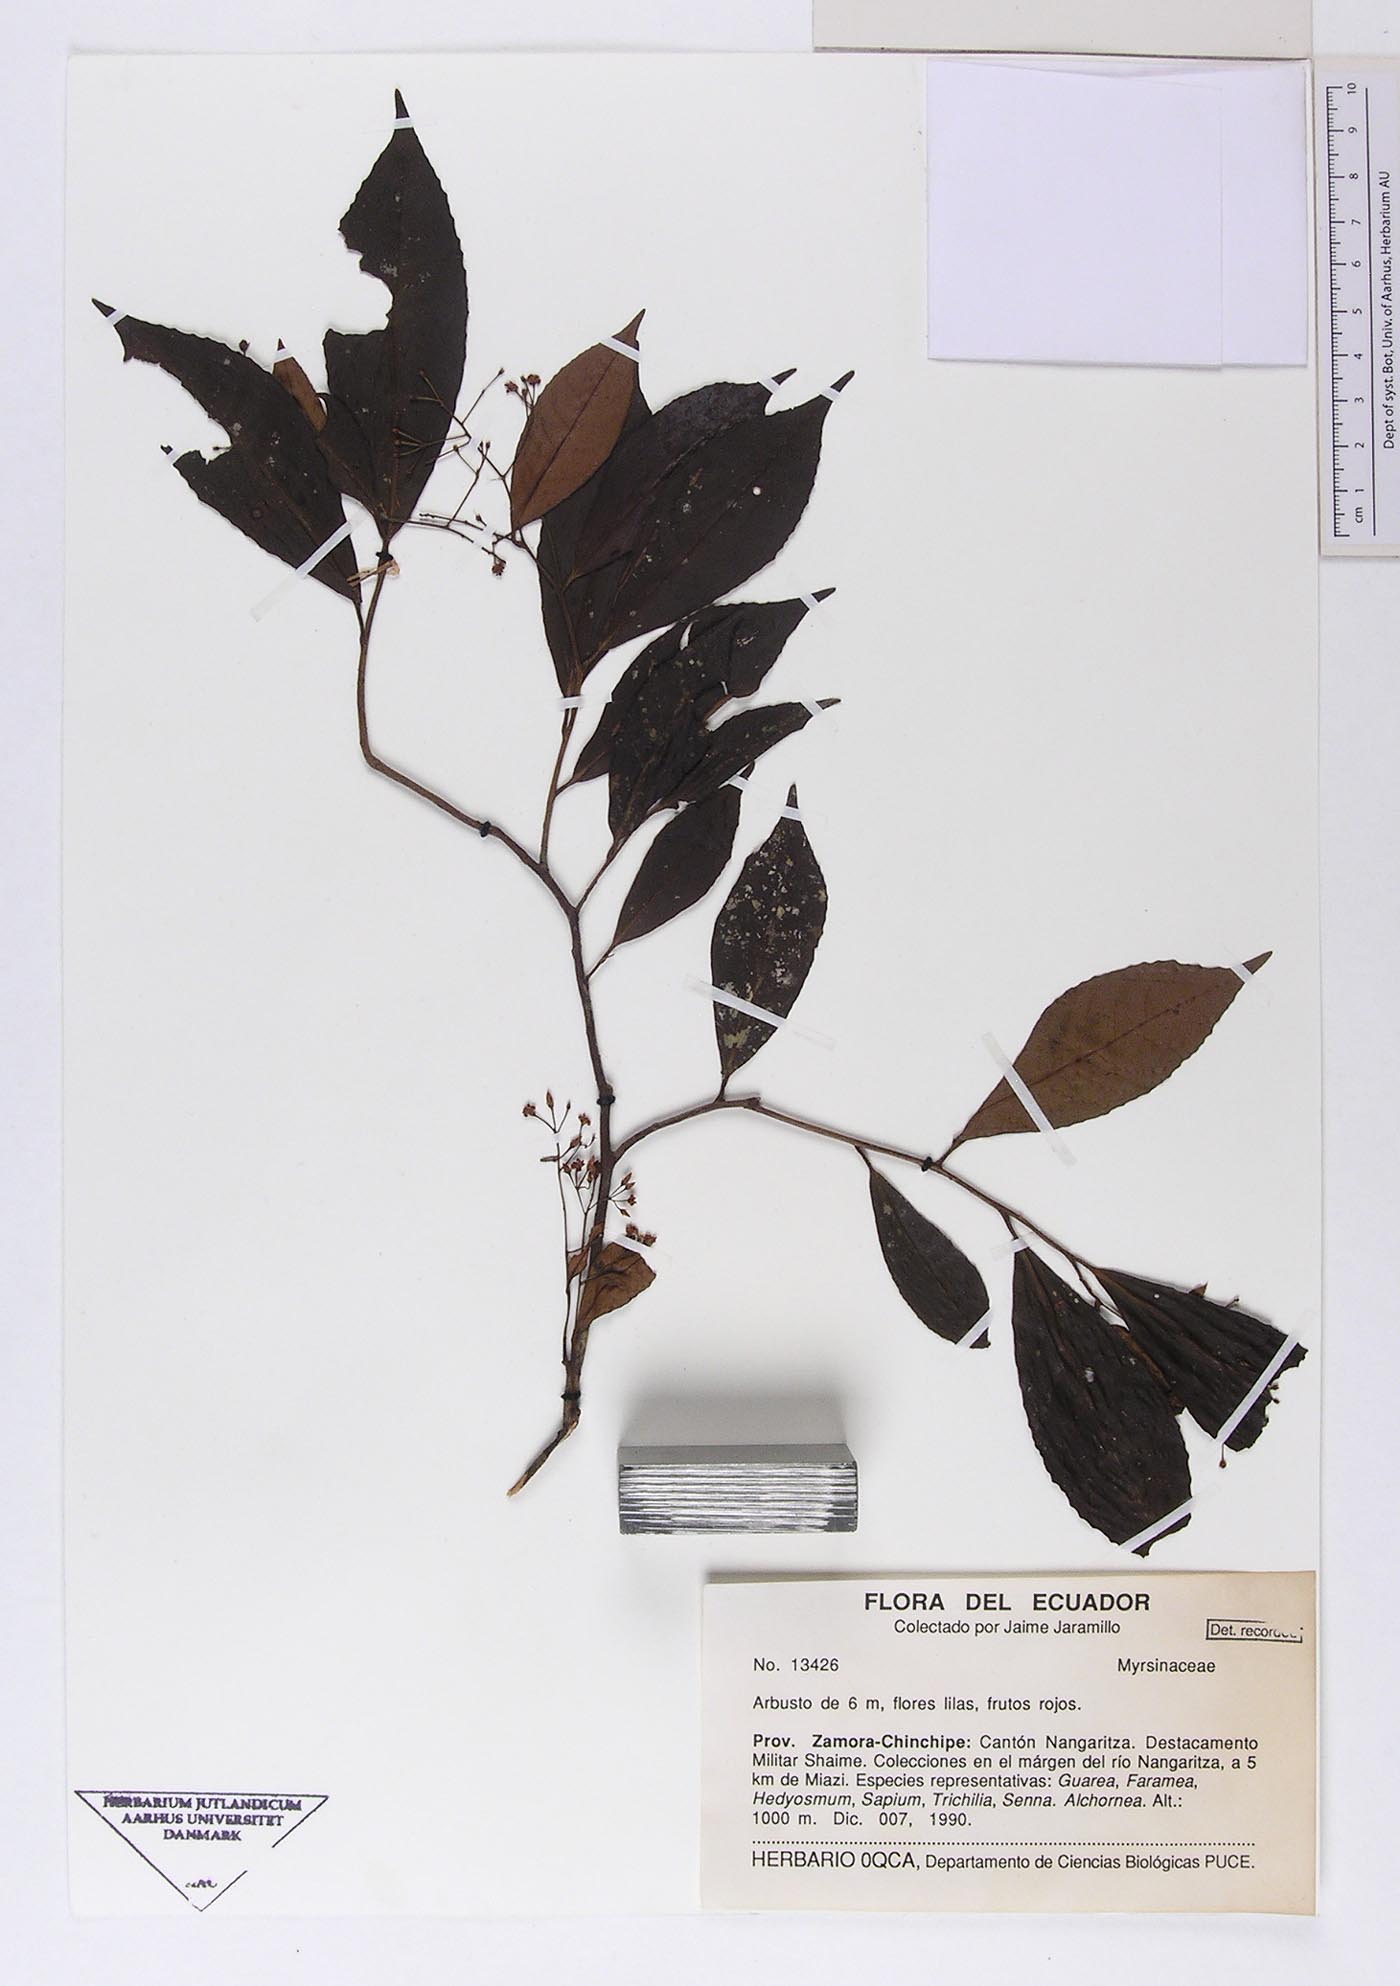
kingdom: Plantae
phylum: Tracheophyta
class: Magnoliopsida
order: Ericales
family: Primulaceae
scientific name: Primulaceae
